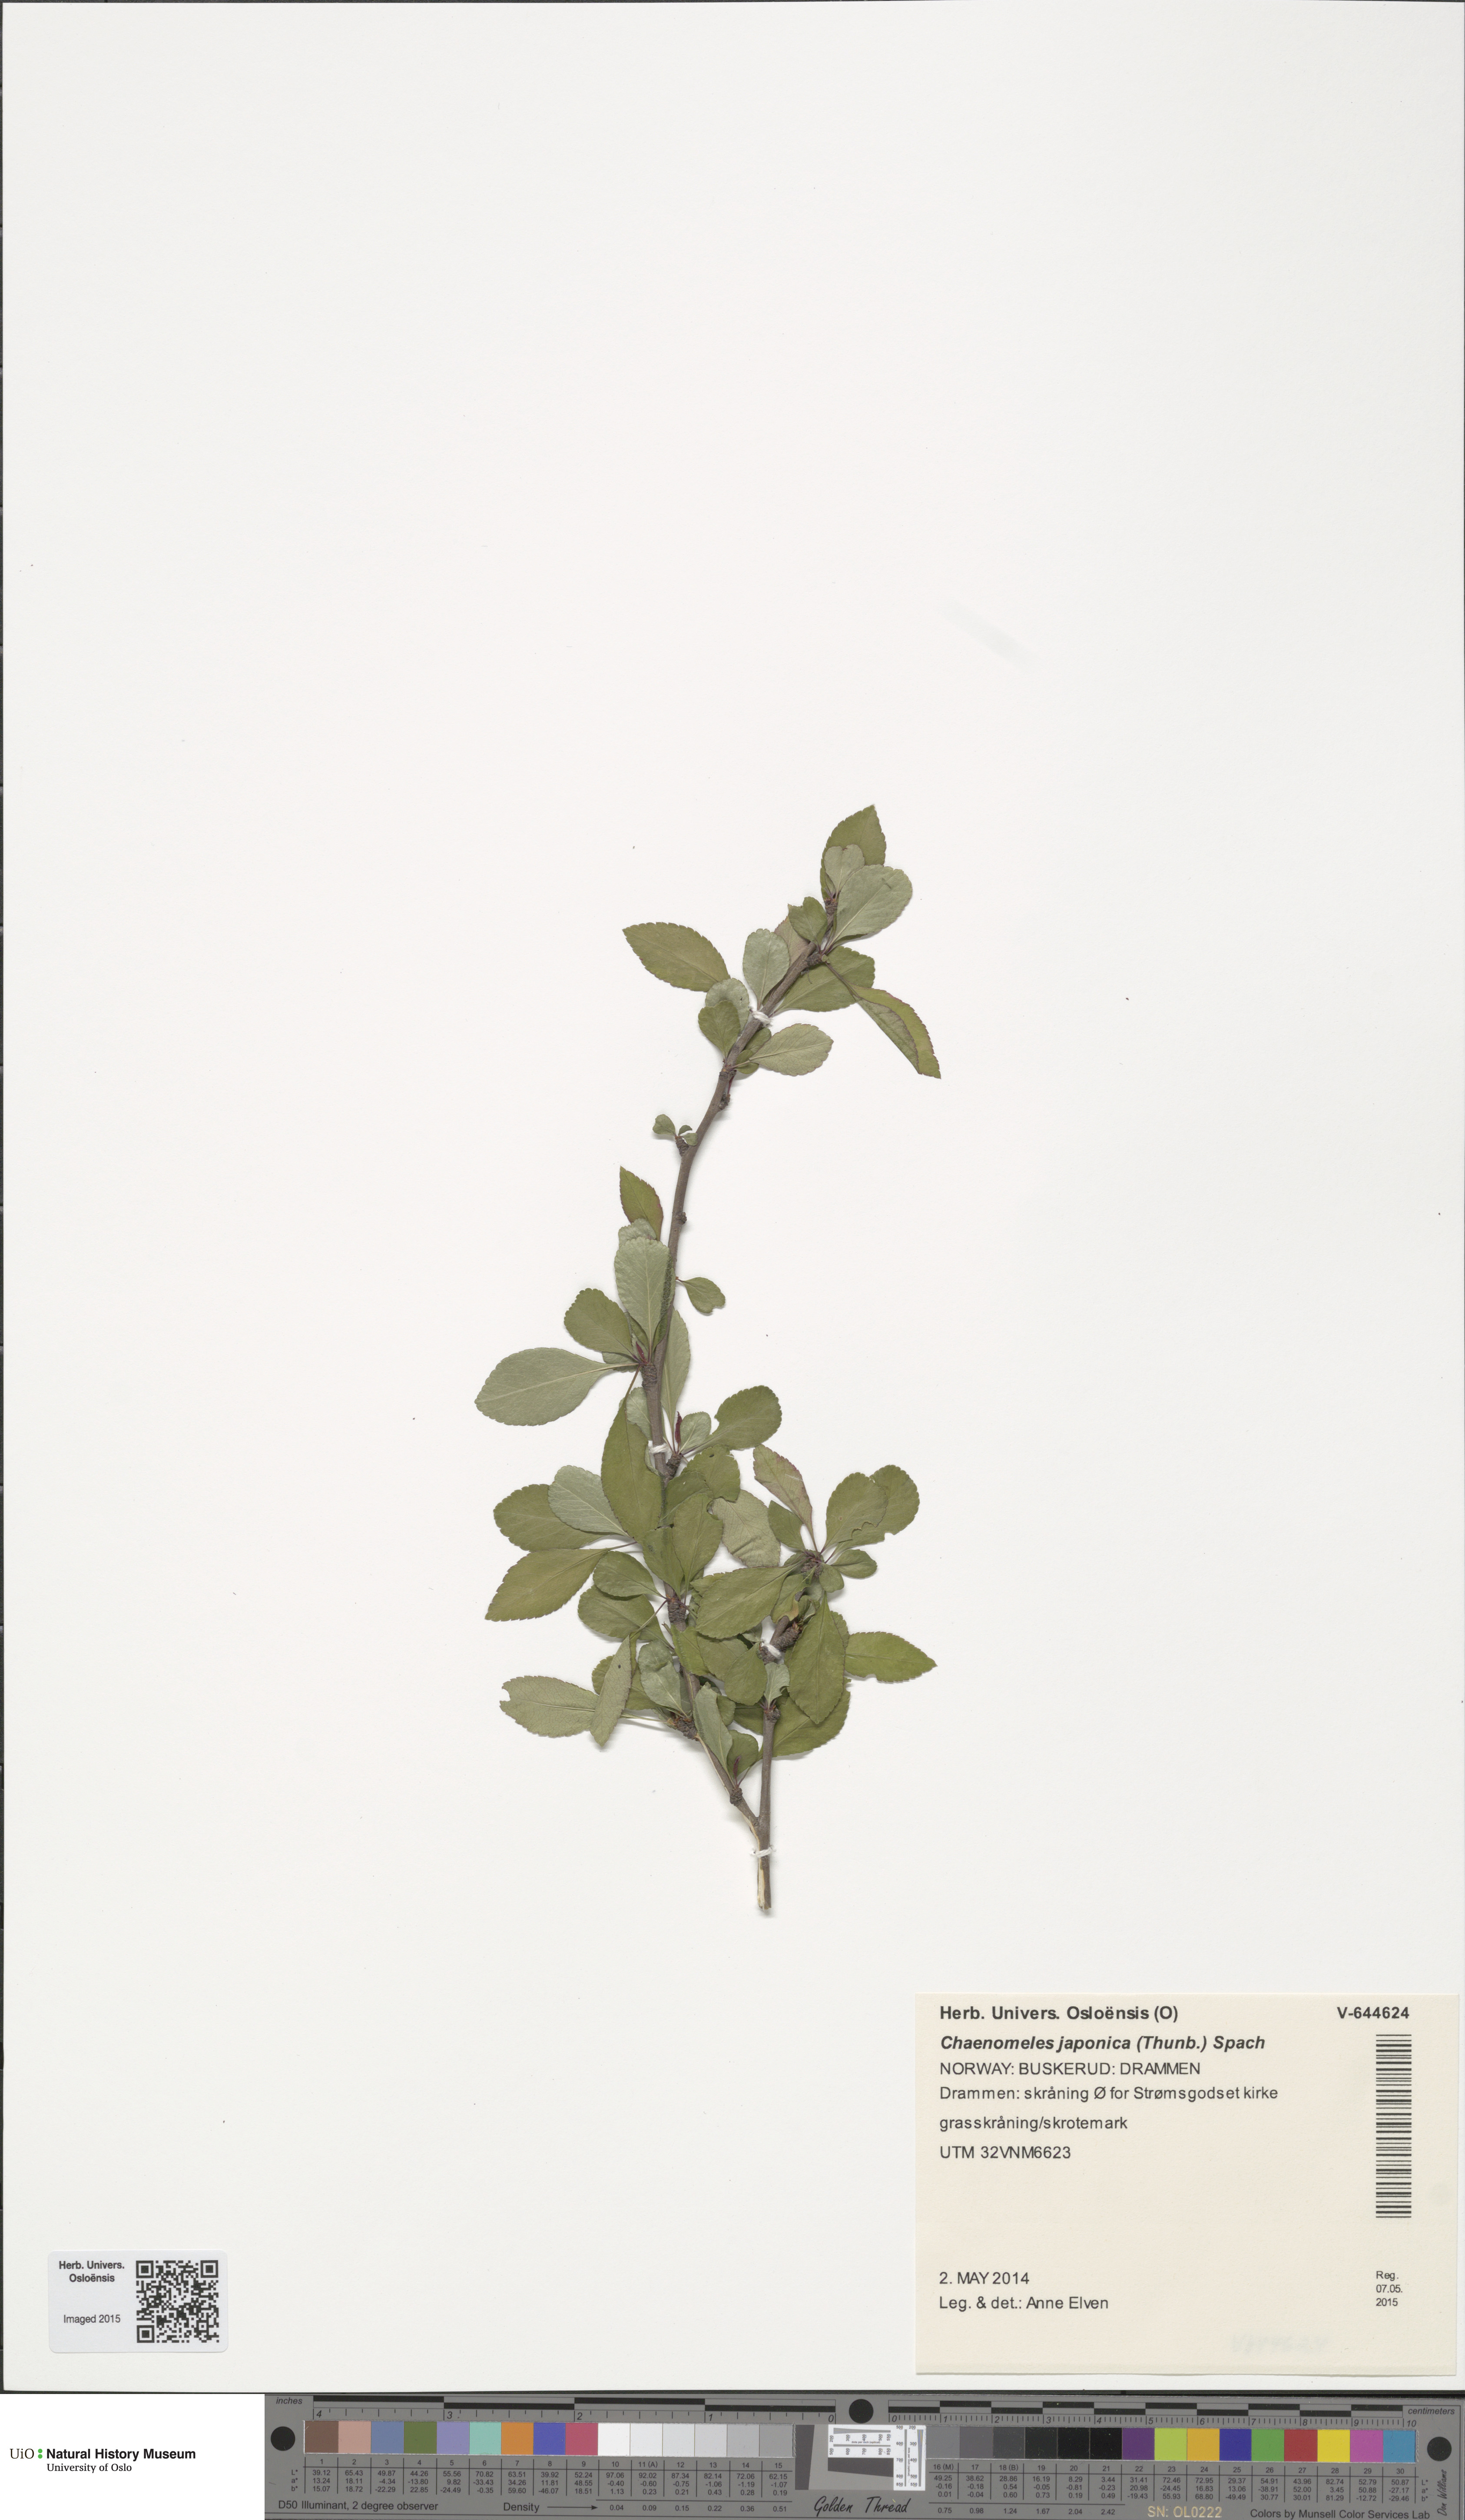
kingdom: Plantae
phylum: Tracheophyta
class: Magnoliopsida
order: Rosales
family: Rosaceae
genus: Chaenomeles
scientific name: Chaenomeles japonica
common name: Japanese quince
